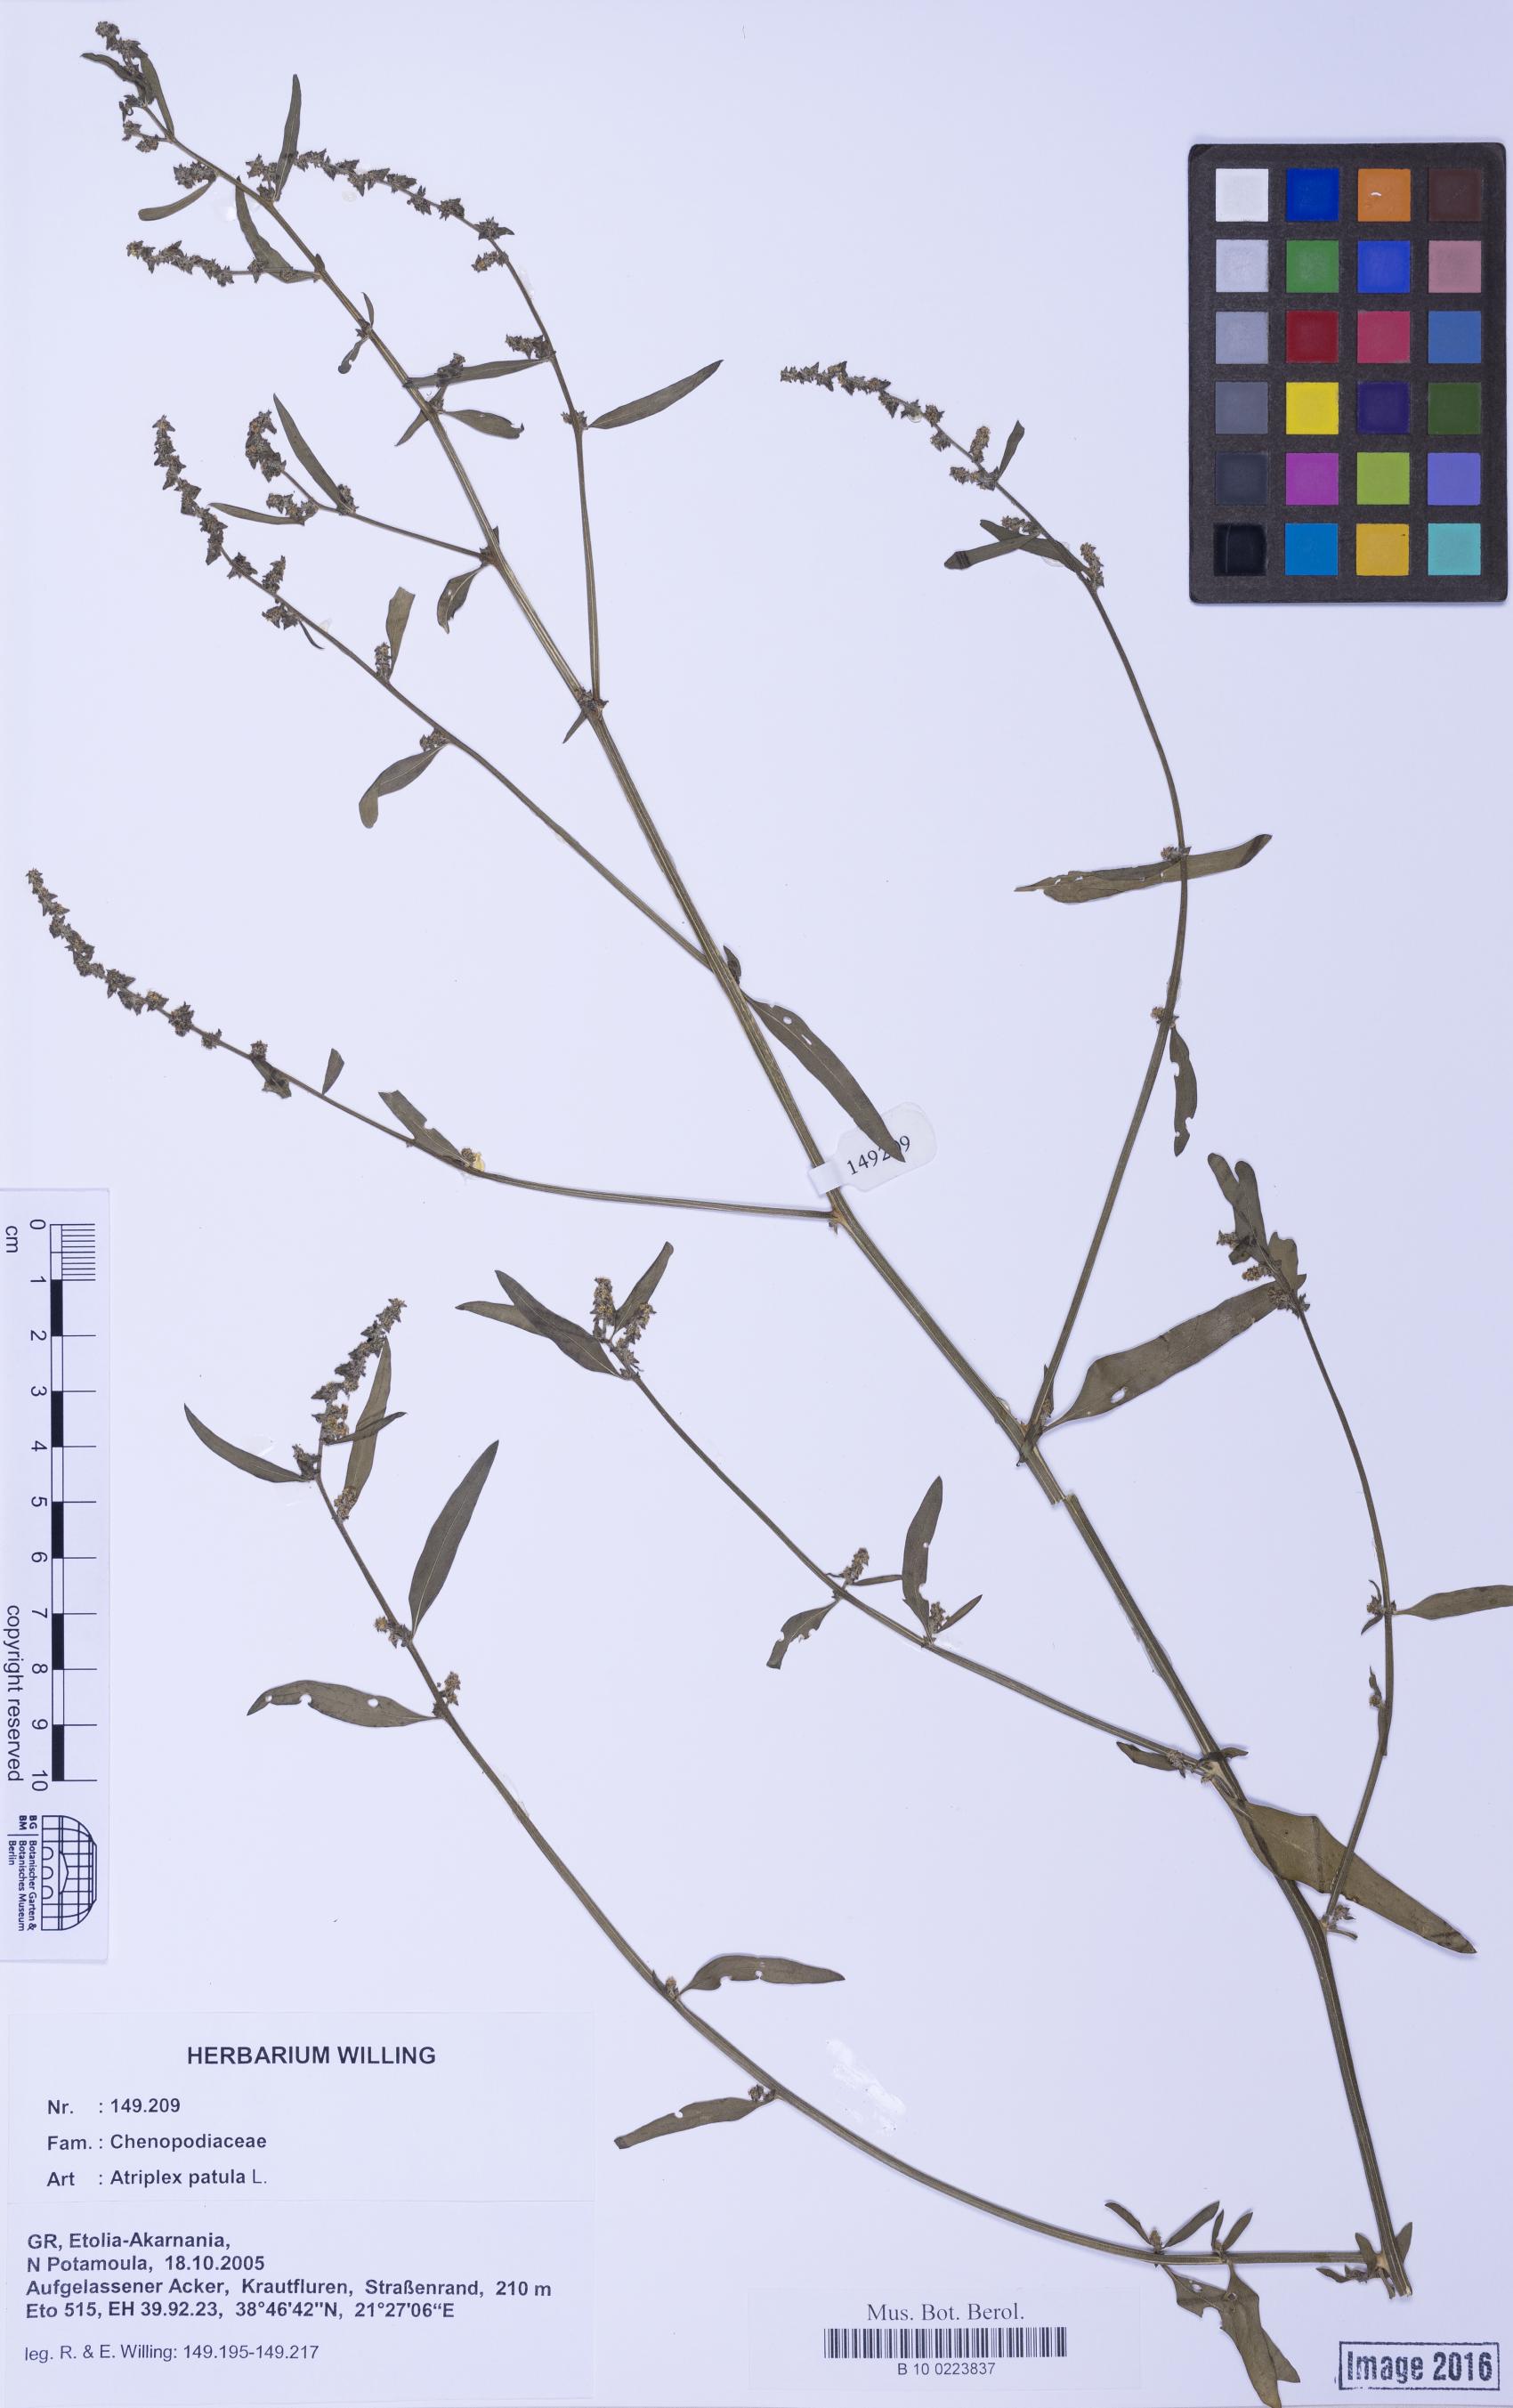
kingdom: Plantae
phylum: Tracheophyta
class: Magnoliopsida
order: Caryophyllales
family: Amaranthaceae
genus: Atriplex
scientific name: Atriplex patula
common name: Common orache
